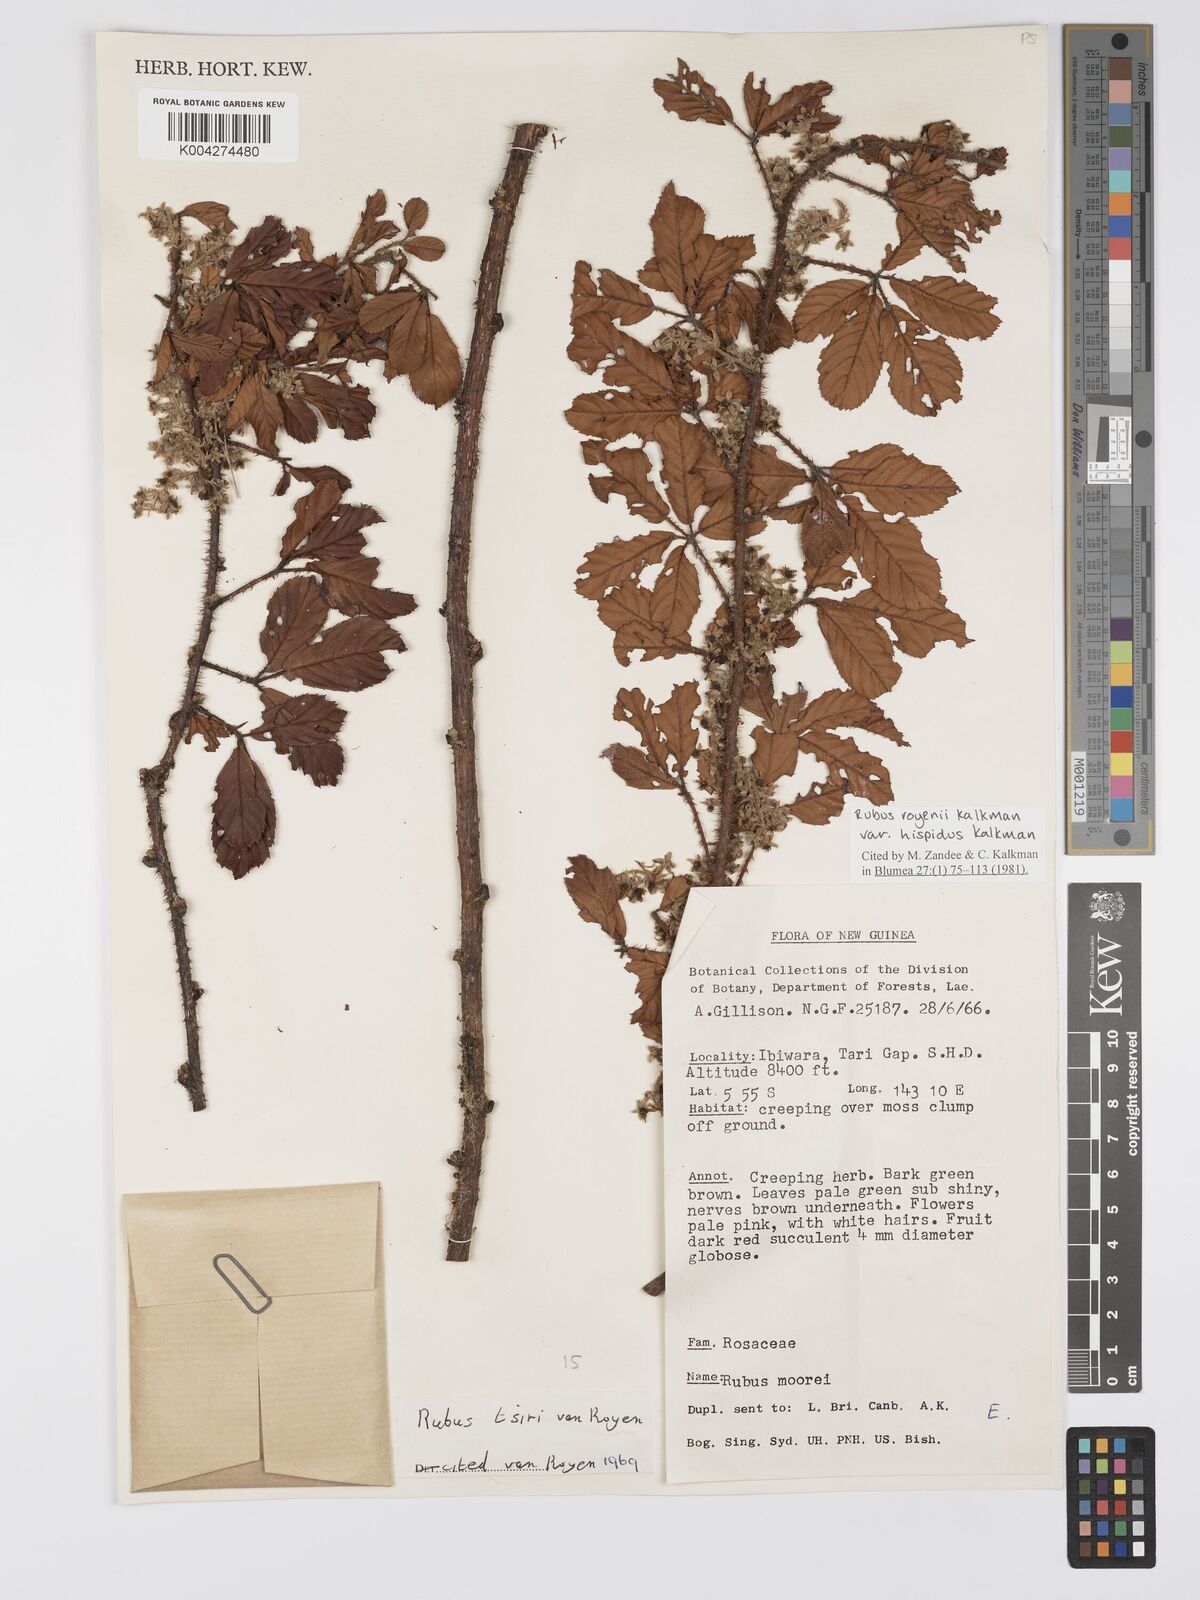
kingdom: Plantae
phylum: Tracheophyta
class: Magnoliopsida
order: Rosales
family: Rosaceae
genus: Rubus
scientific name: Rubus royenii
